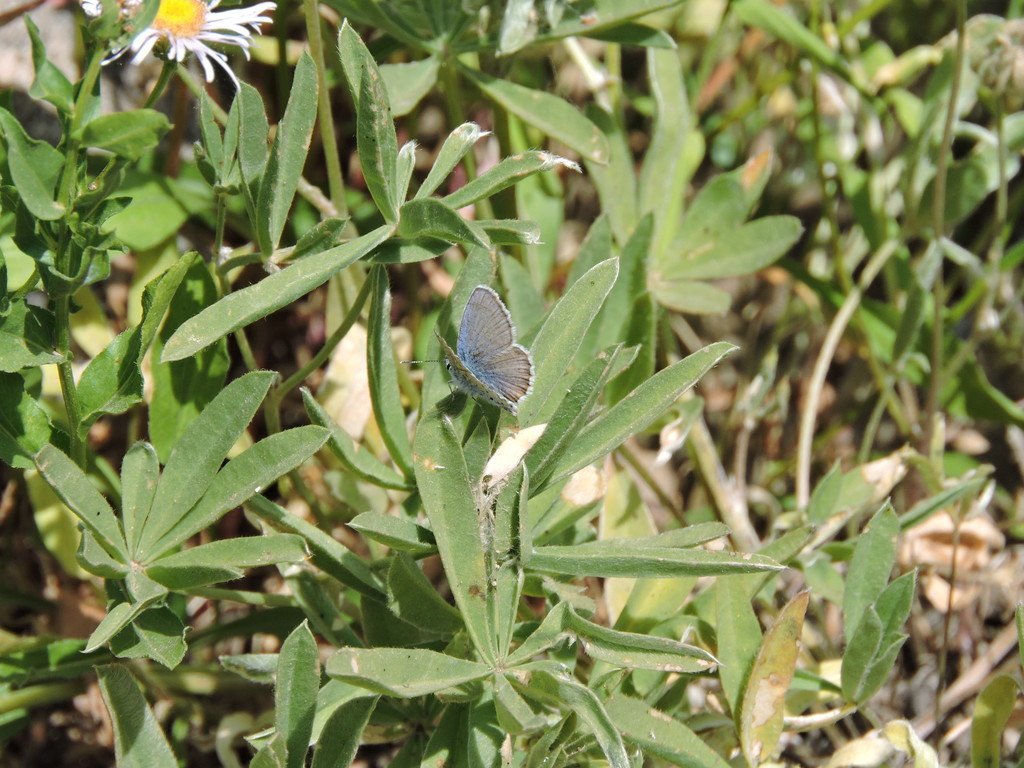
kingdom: Animalia
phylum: Arthropoda
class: Insecta
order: Lepidoptera
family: Lycaenidae
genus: Icaricia
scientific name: Icaricia icarioides
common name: Boisduval's Blue
